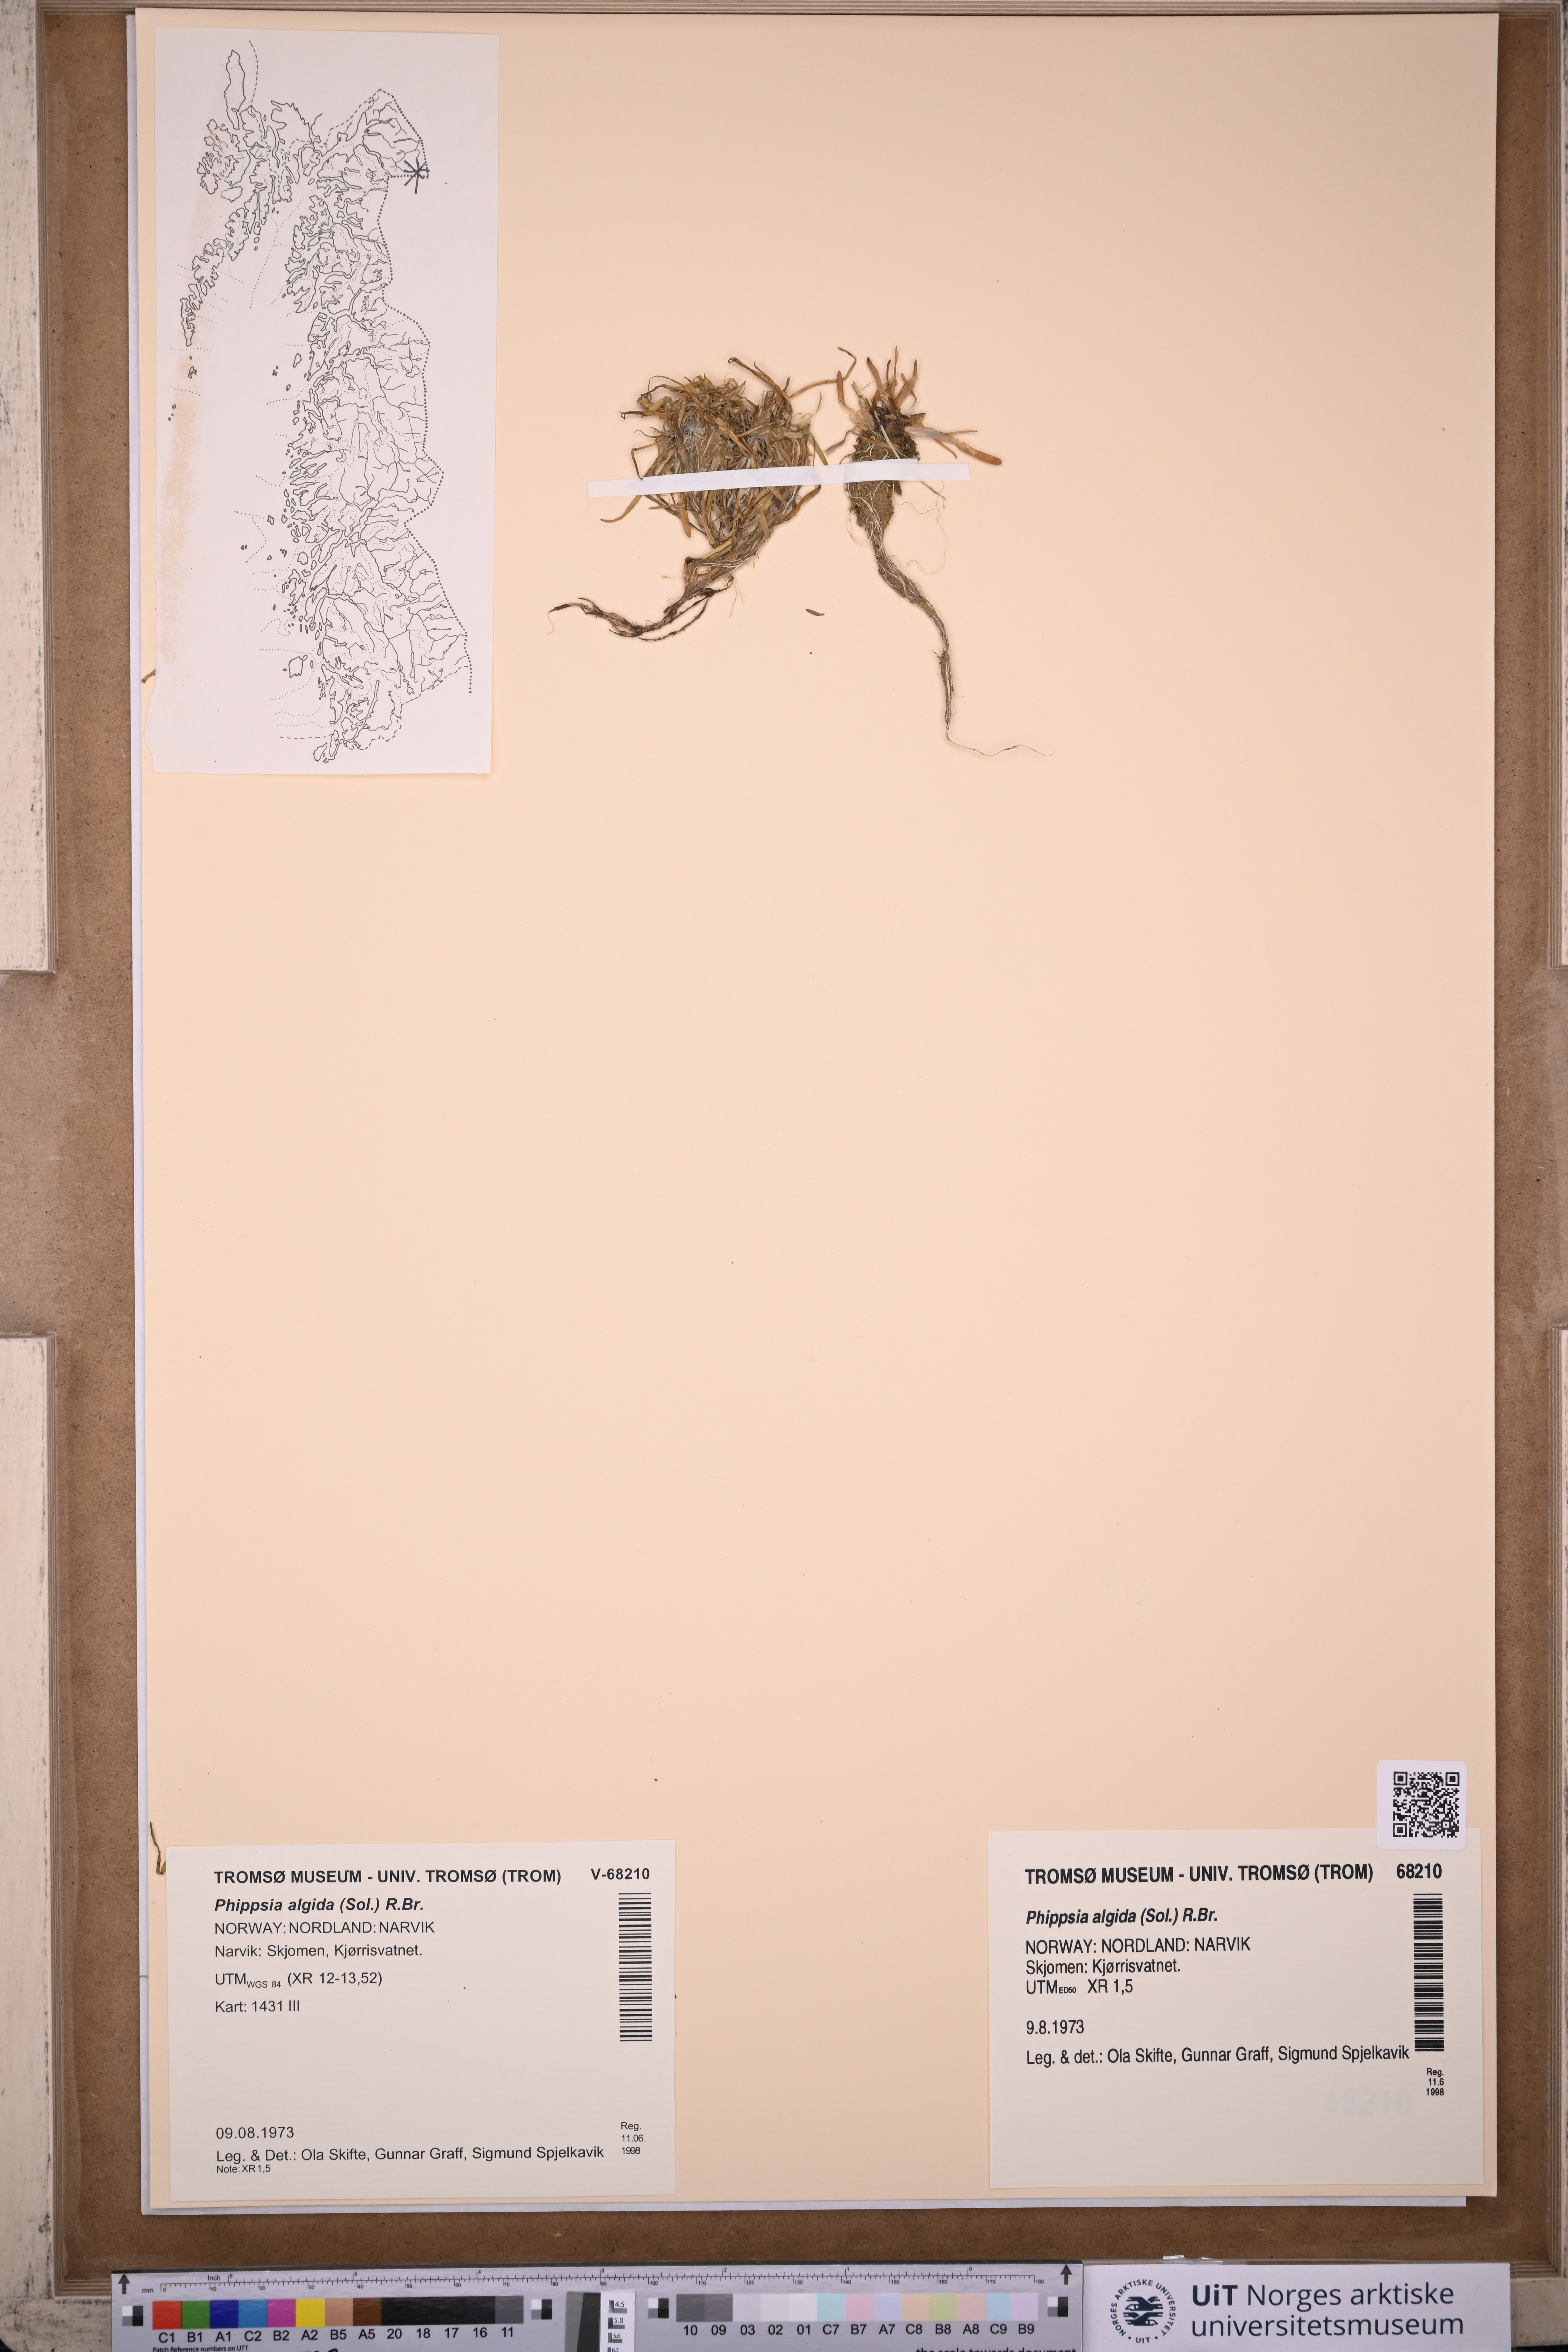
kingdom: Plantae
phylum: Tracheophyta
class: Liliopsida
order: Poales
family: Poaceae
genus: Phippsia
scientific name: Phippsia algida
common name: Ice grass
